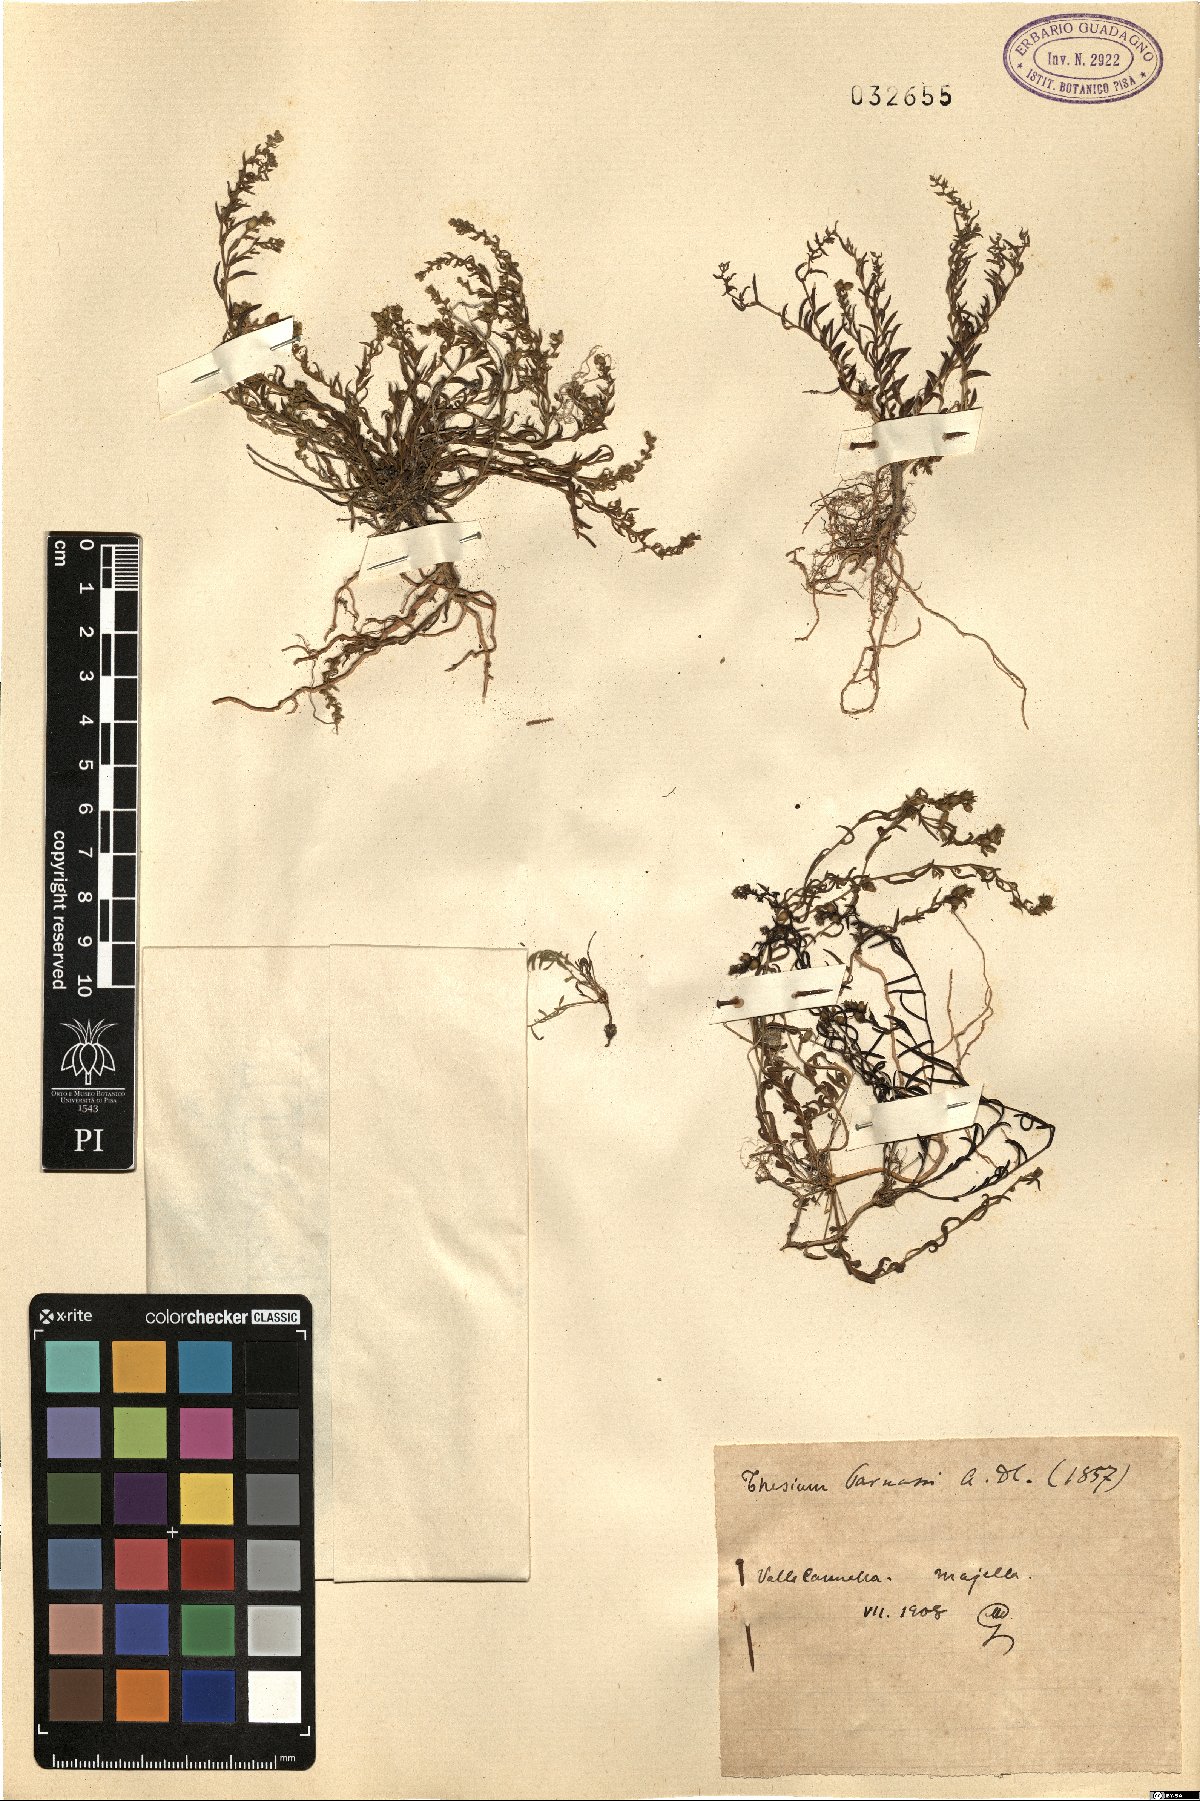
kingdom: Plantae
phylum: Tracheophyta
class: Magnoliopsida
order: Santalales
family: Thesiaceae
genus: Thesium
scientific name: Thesium parnassi
